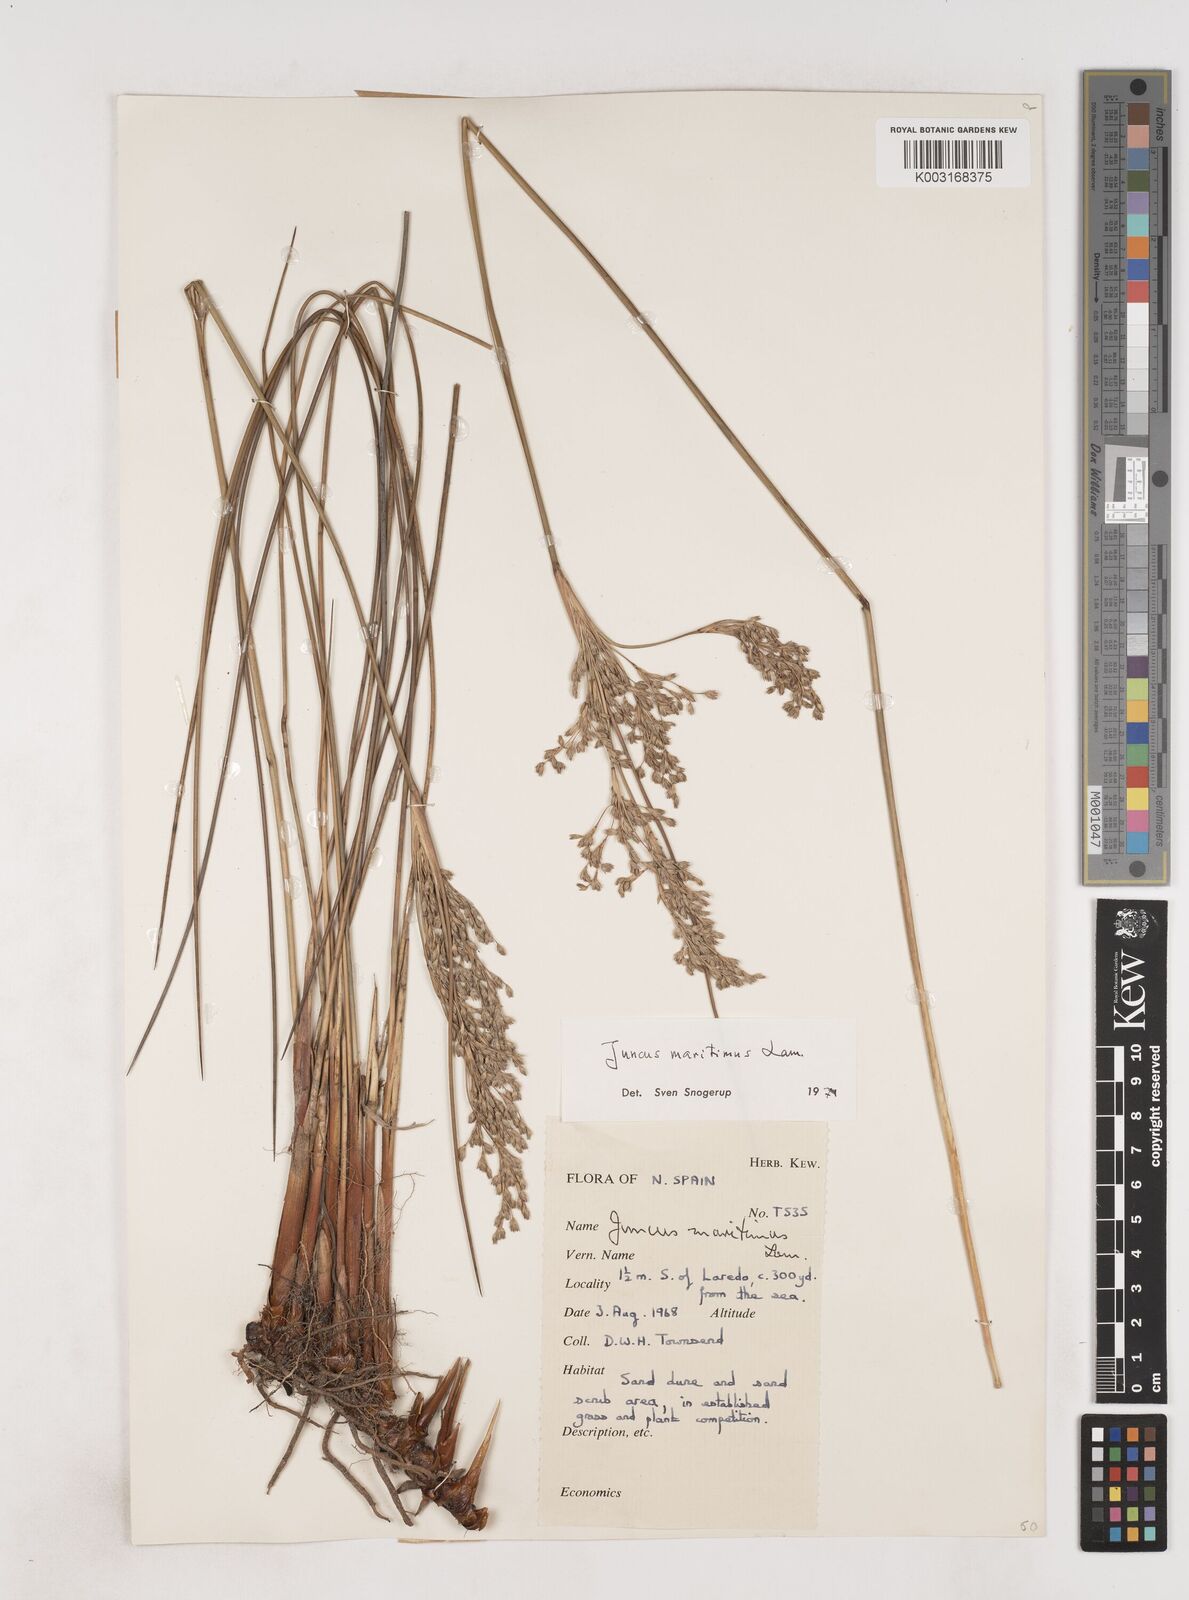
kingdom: Plantae
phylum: Tracheophyta
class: Liliopsida
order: Poales
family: Juncaceae
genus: Luzula
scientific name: Luzula sylvatica
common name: Great wood-rush
